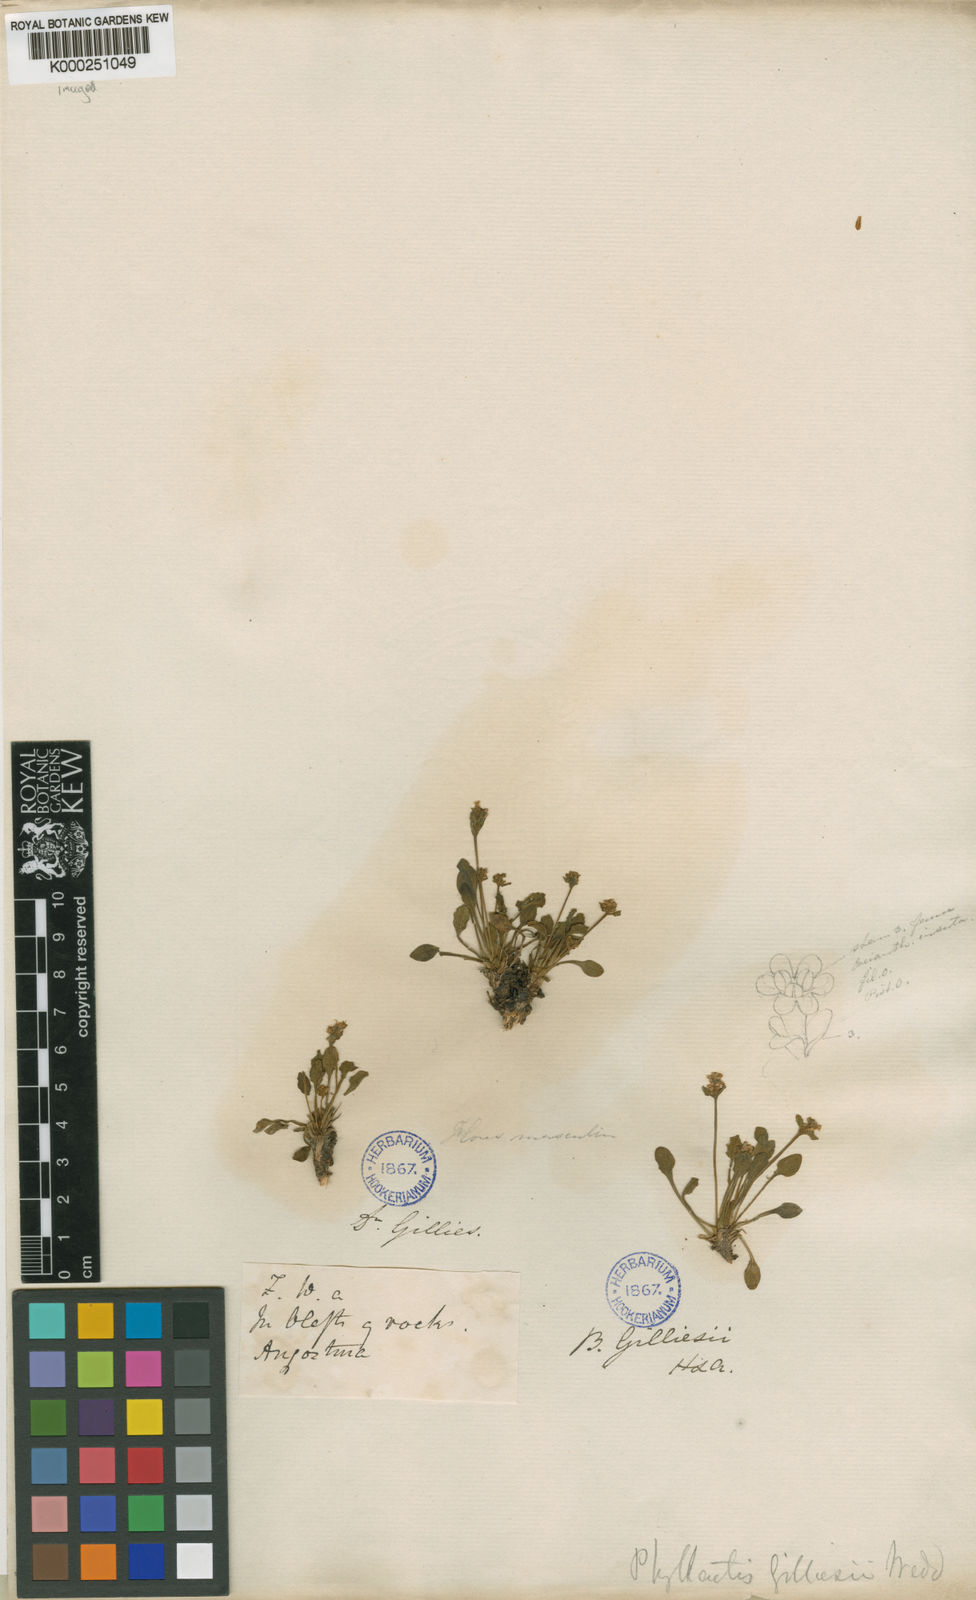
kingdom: Plantae
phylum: Tracheophyta
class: Magnoliopsida
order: Dipsacales
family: Caprifoliaceae
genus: Valeriana
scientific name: Valeriana macrorhiza
